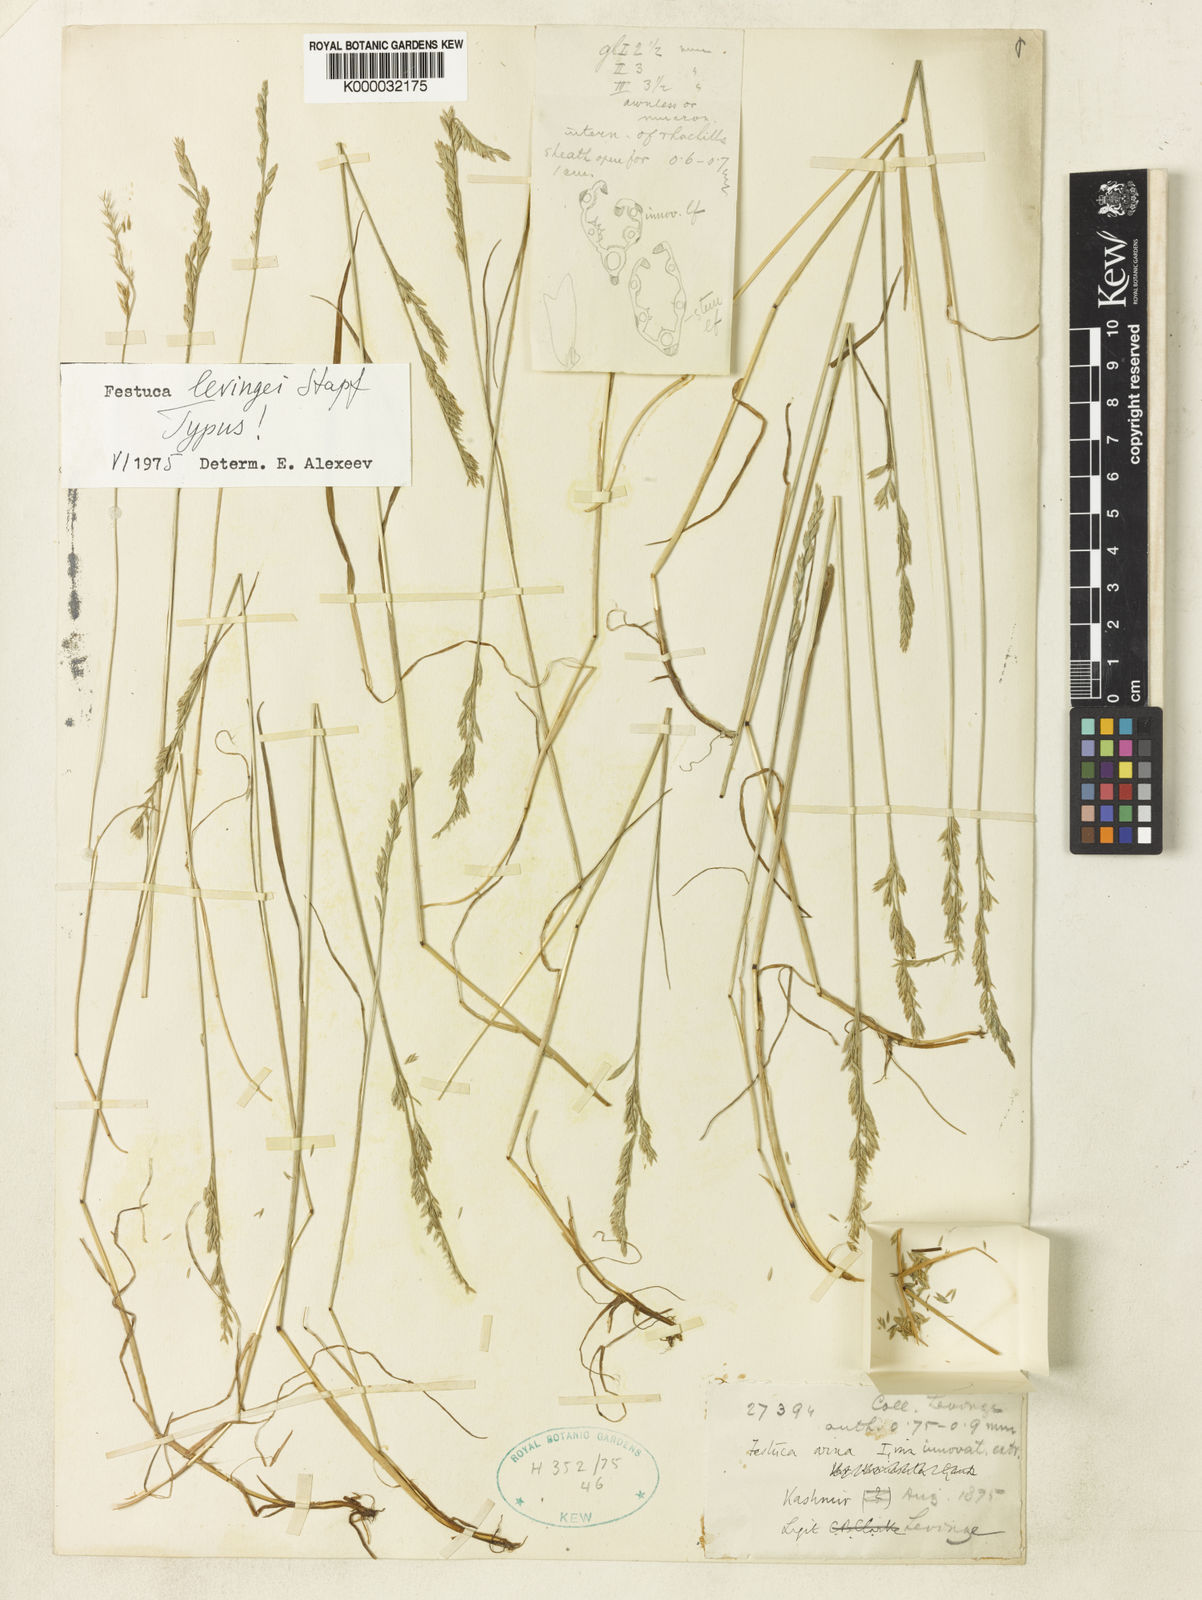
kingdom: Plantae
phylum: Tracheophyta
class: Liliopsida
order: Poales
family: Poaceae
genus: Festuca
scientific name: Festuca levingei
